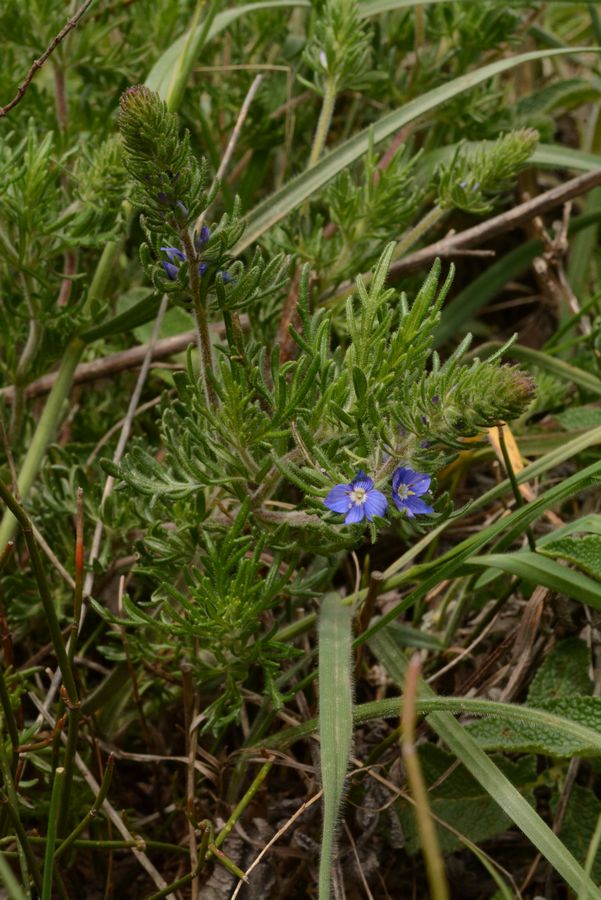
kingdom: Plantae
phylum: Tracheophyta
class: Magnoliopsida
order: Lamiales
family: Plantaginaceae
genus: Veronica
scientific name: Veronica multifida
